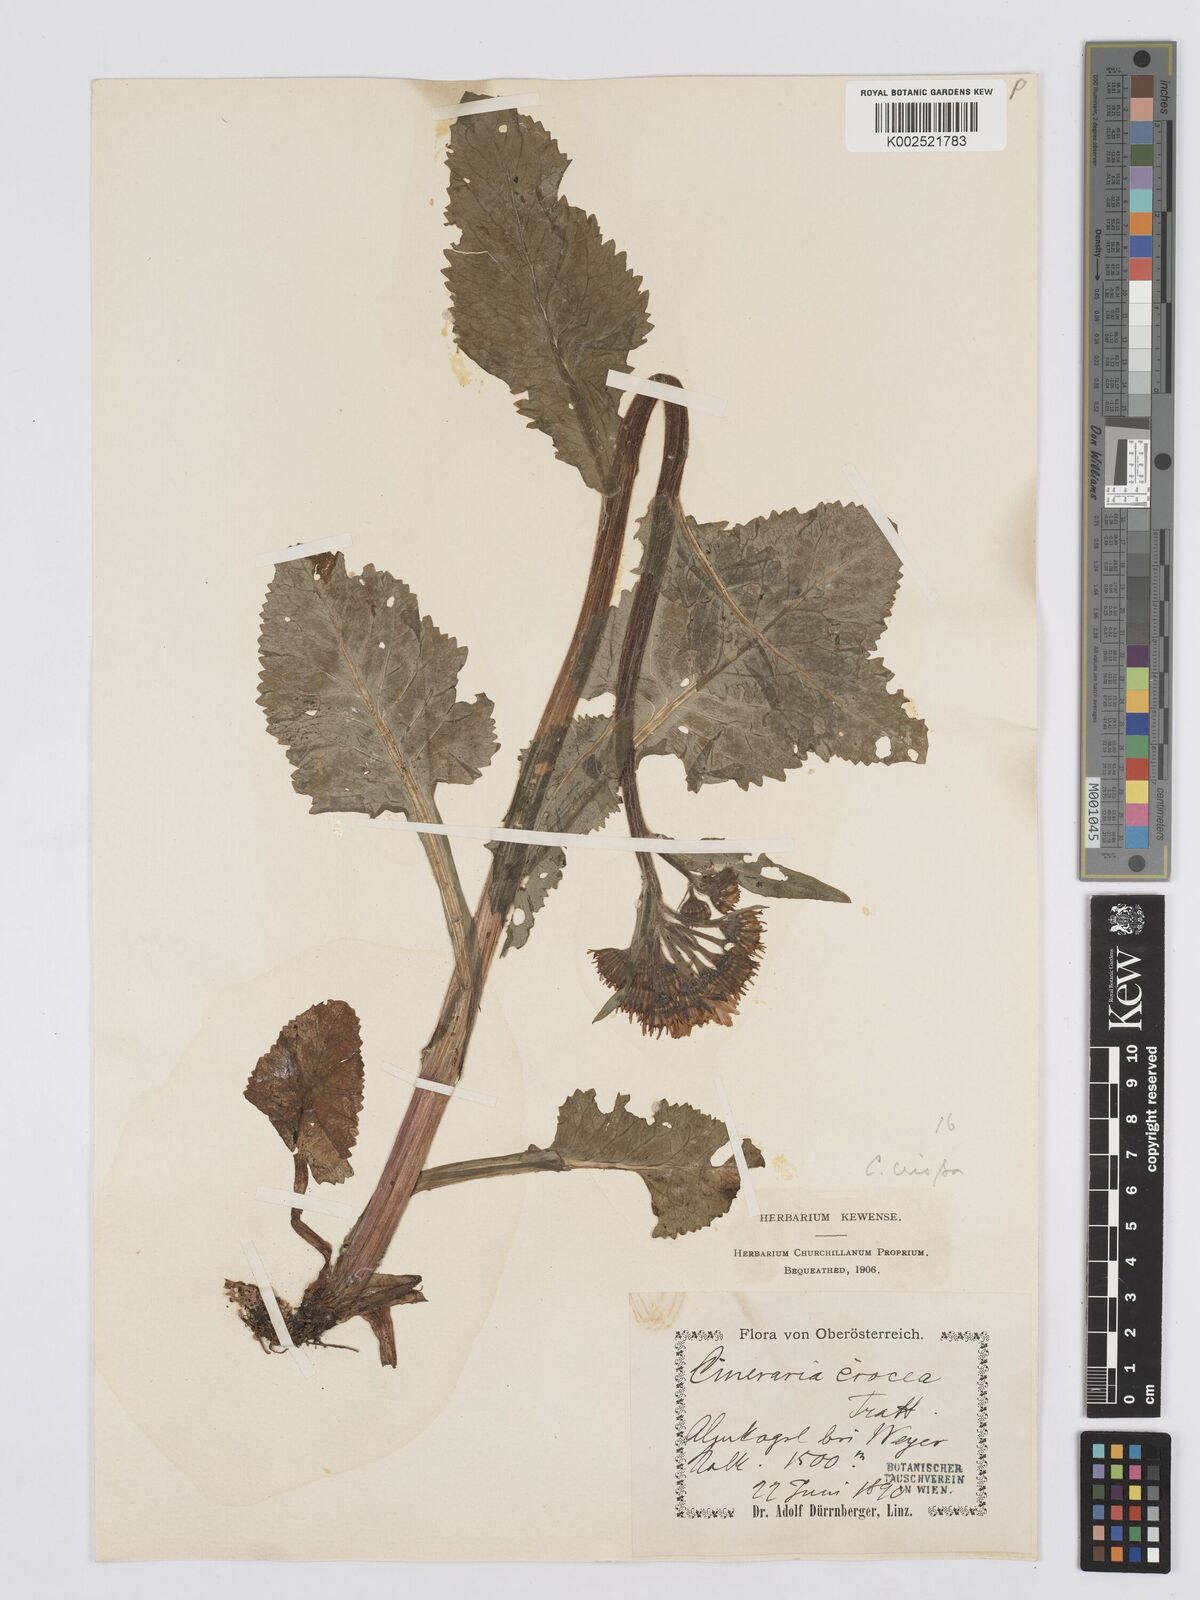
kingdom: Plantae
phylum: Tracheophyta
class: Magnoliopsida
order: Asterales
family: Asteraceae
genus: Tephroseris
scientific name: Tephroseris crispa
